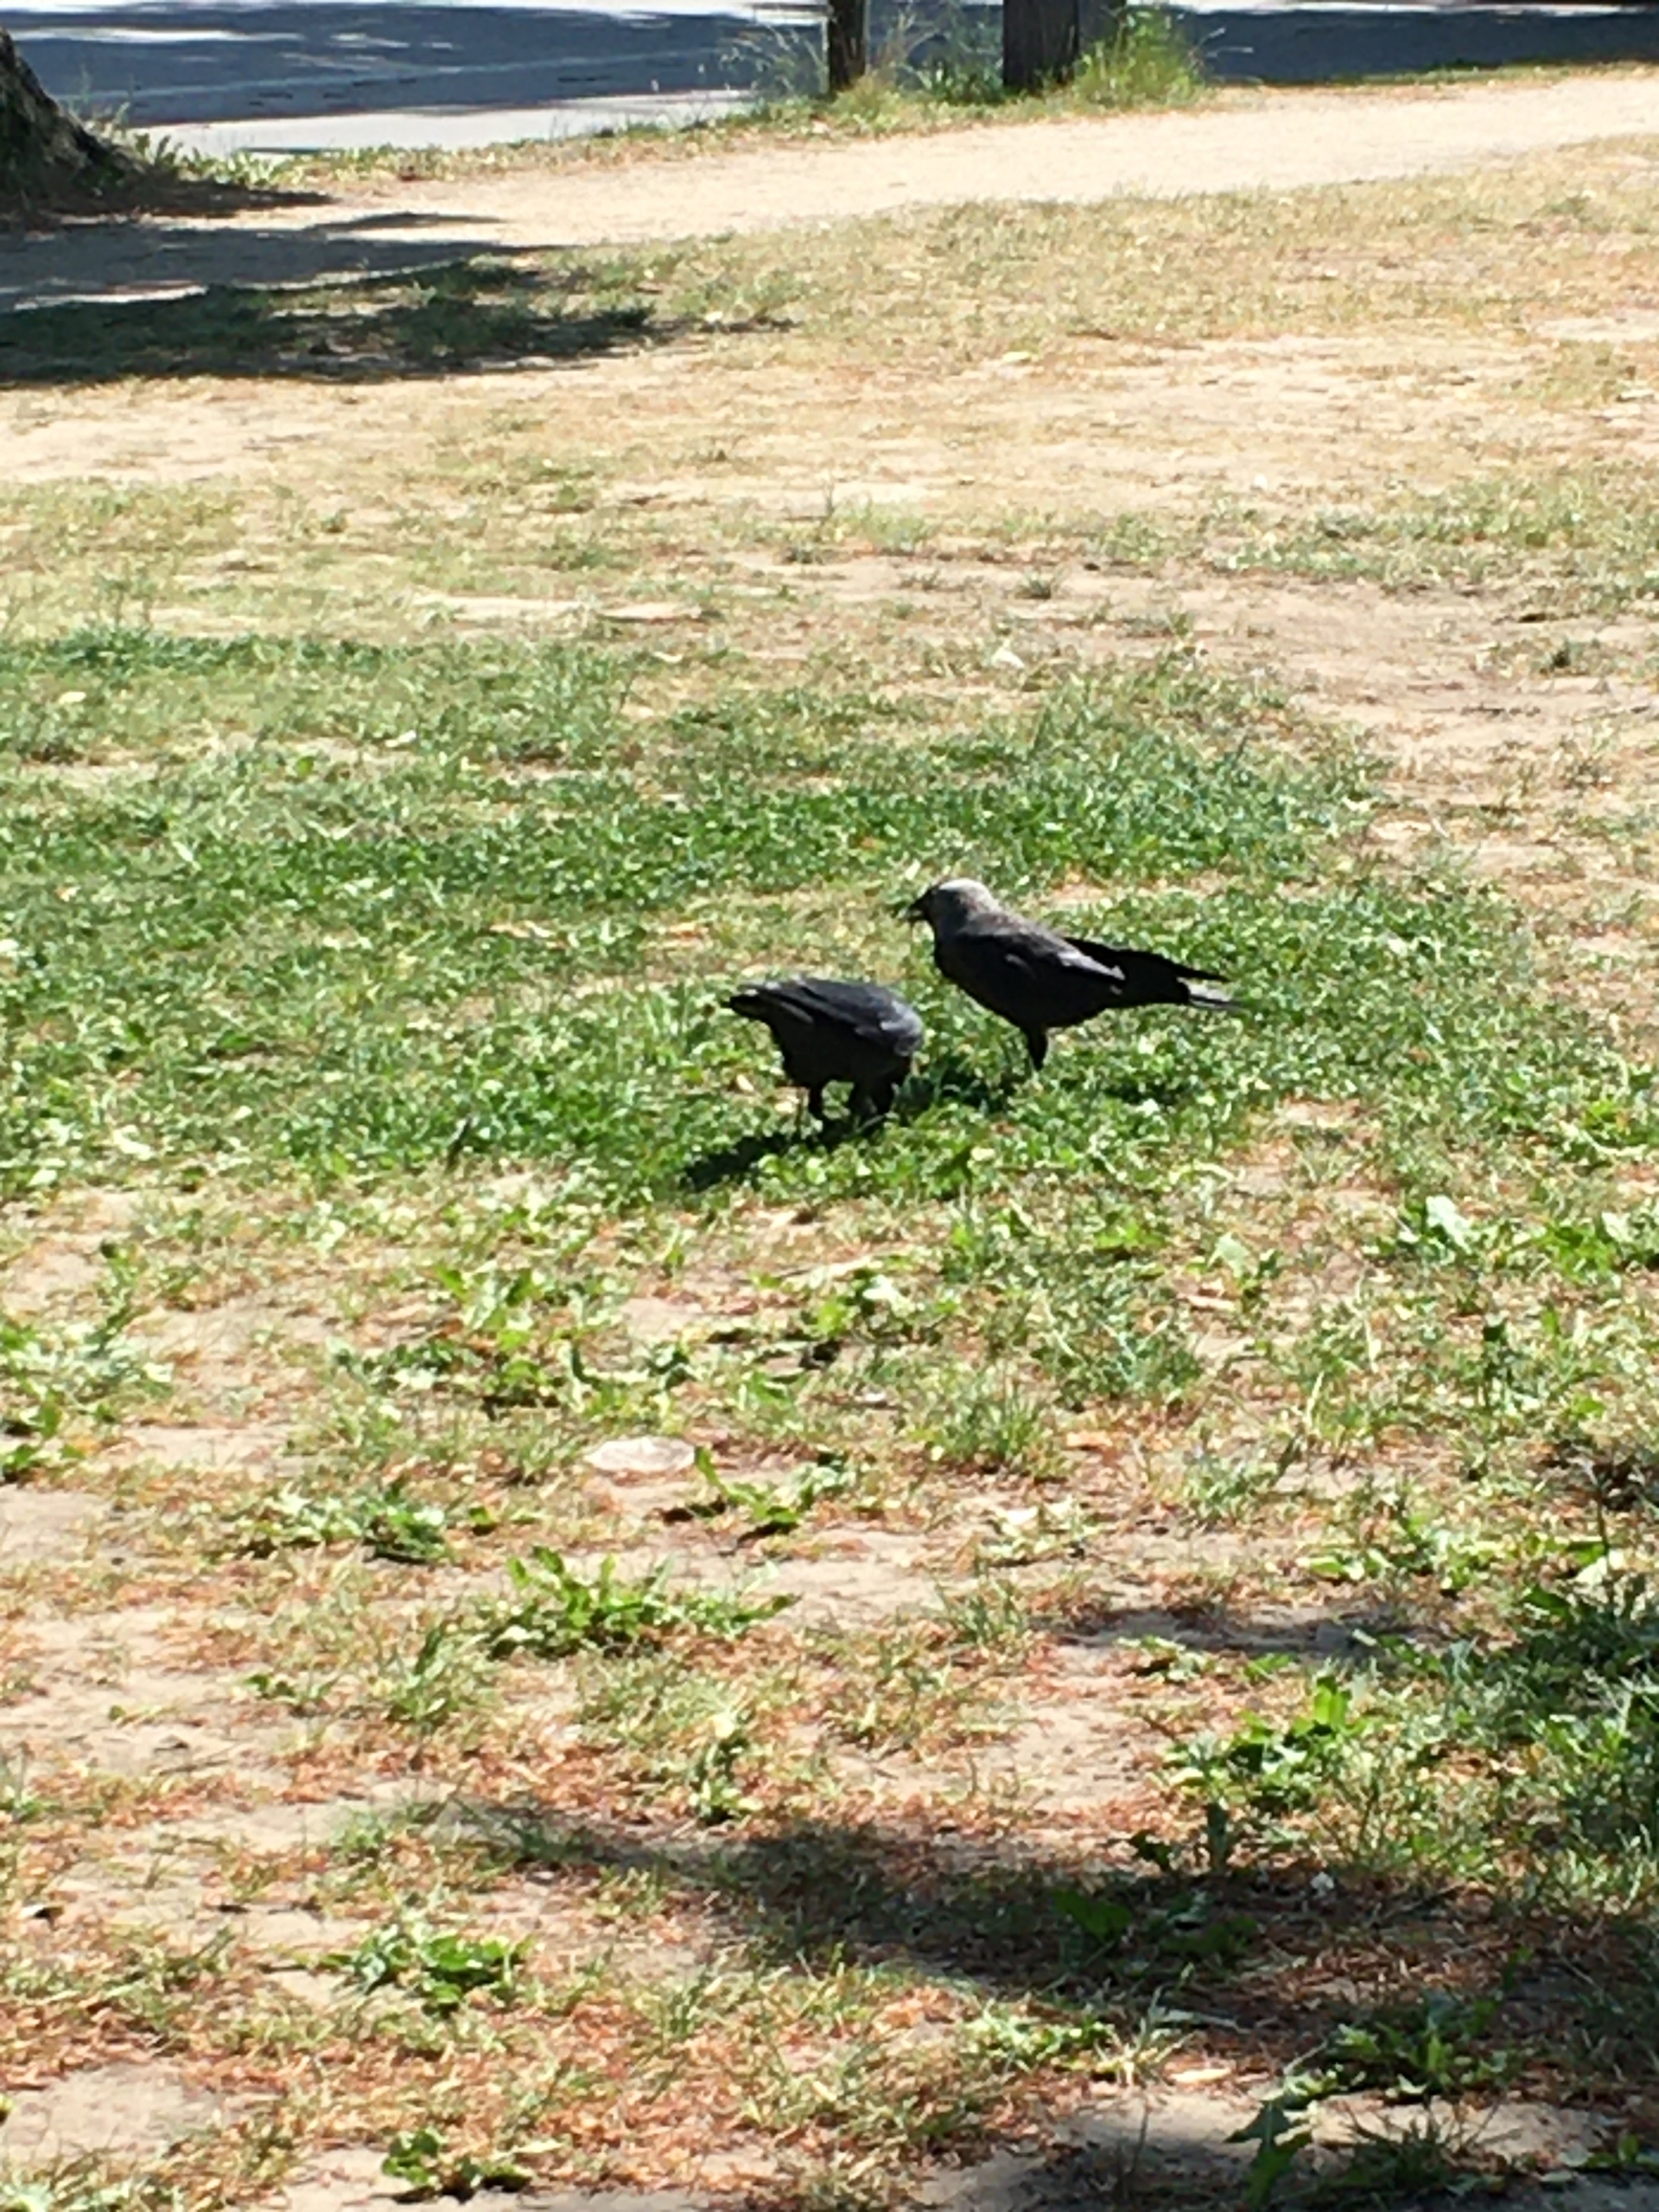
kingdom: Animalia
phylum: Chordata
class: Aves
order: Passeriformes
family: Corvidae
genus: Coloeus
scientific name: Coloeus monedula
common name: Allike
